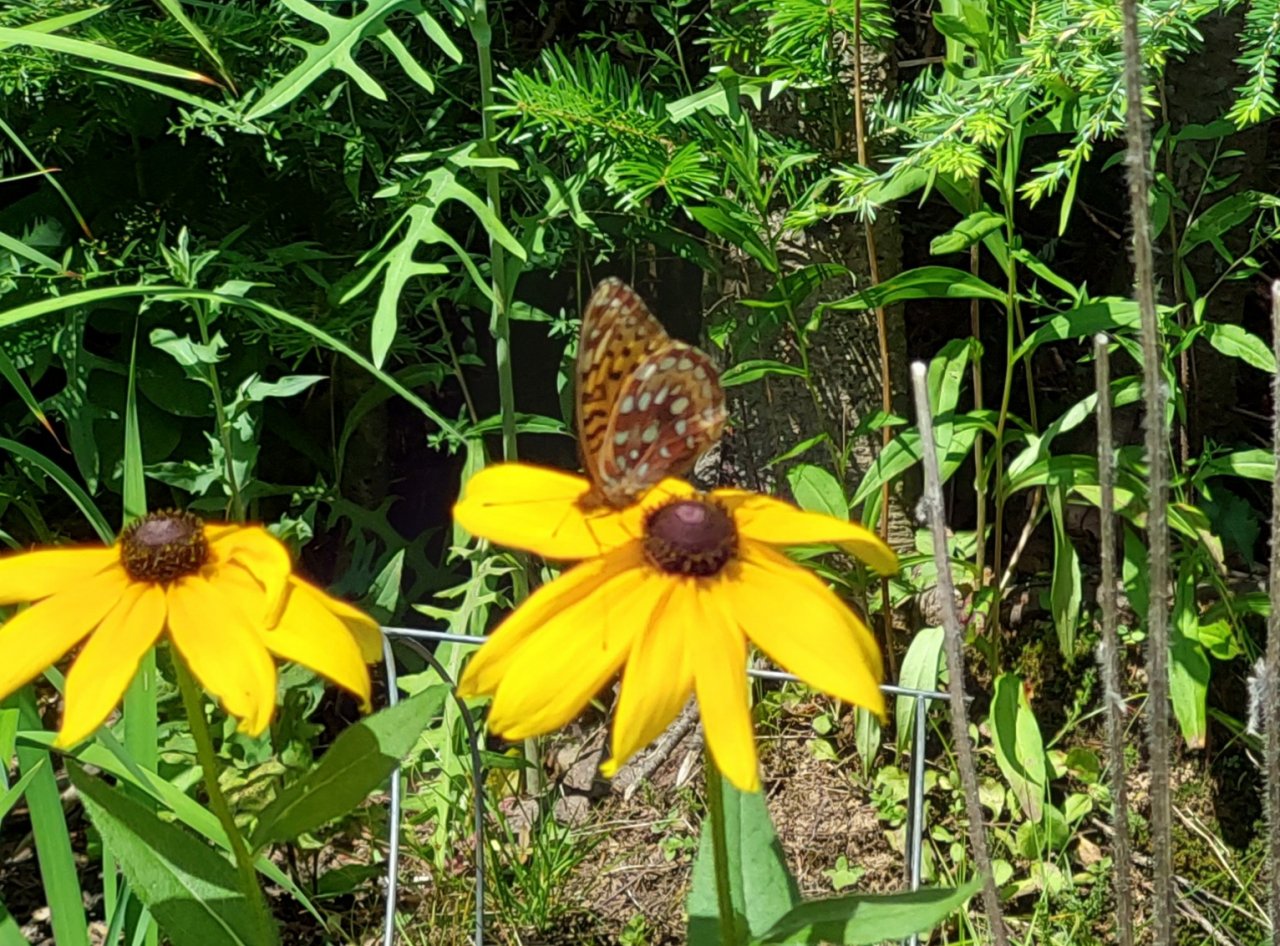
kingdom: Animalia
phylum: Arthropoda
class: Insecta
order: Lepidoptera
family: Nymphalidae
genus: Speyeria
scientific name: Speyeria cybele
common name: Great Spangled Fritillary
